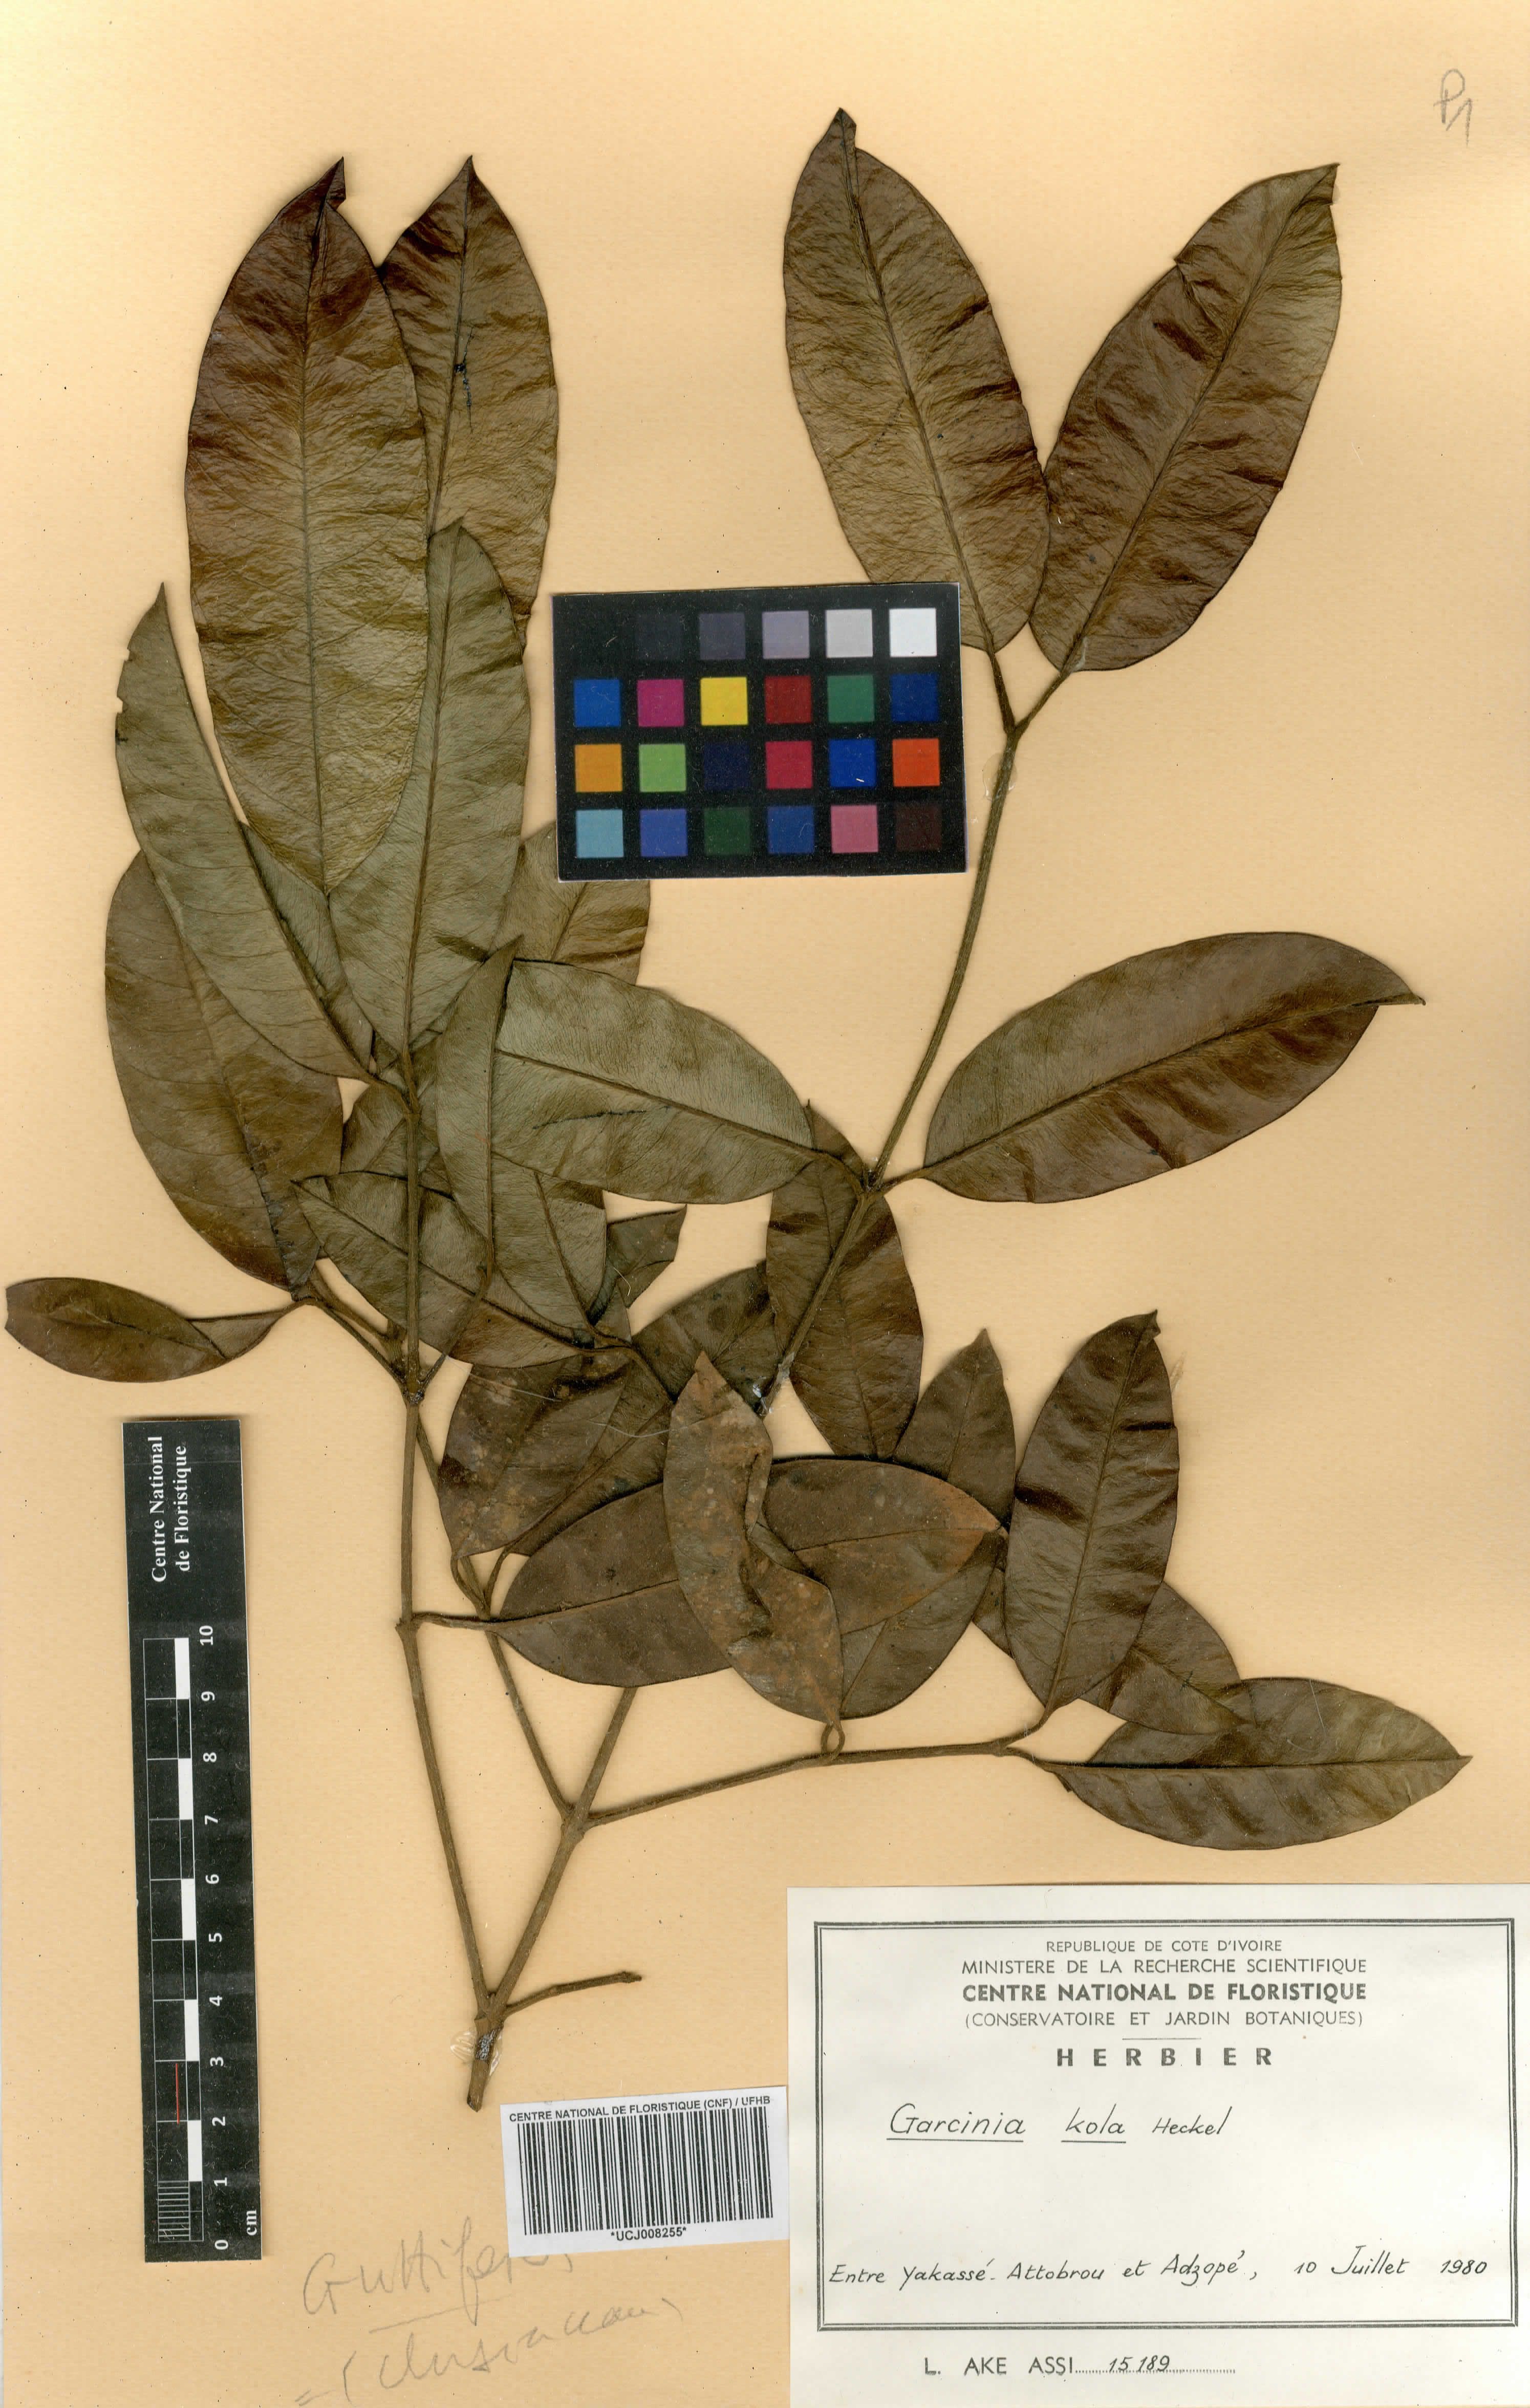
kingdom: Plantae
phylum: Tracheophyta
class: Magnoliopsida
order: Malpighiales
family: Clusiaceae
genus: Garcinia
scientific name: Garcinia
